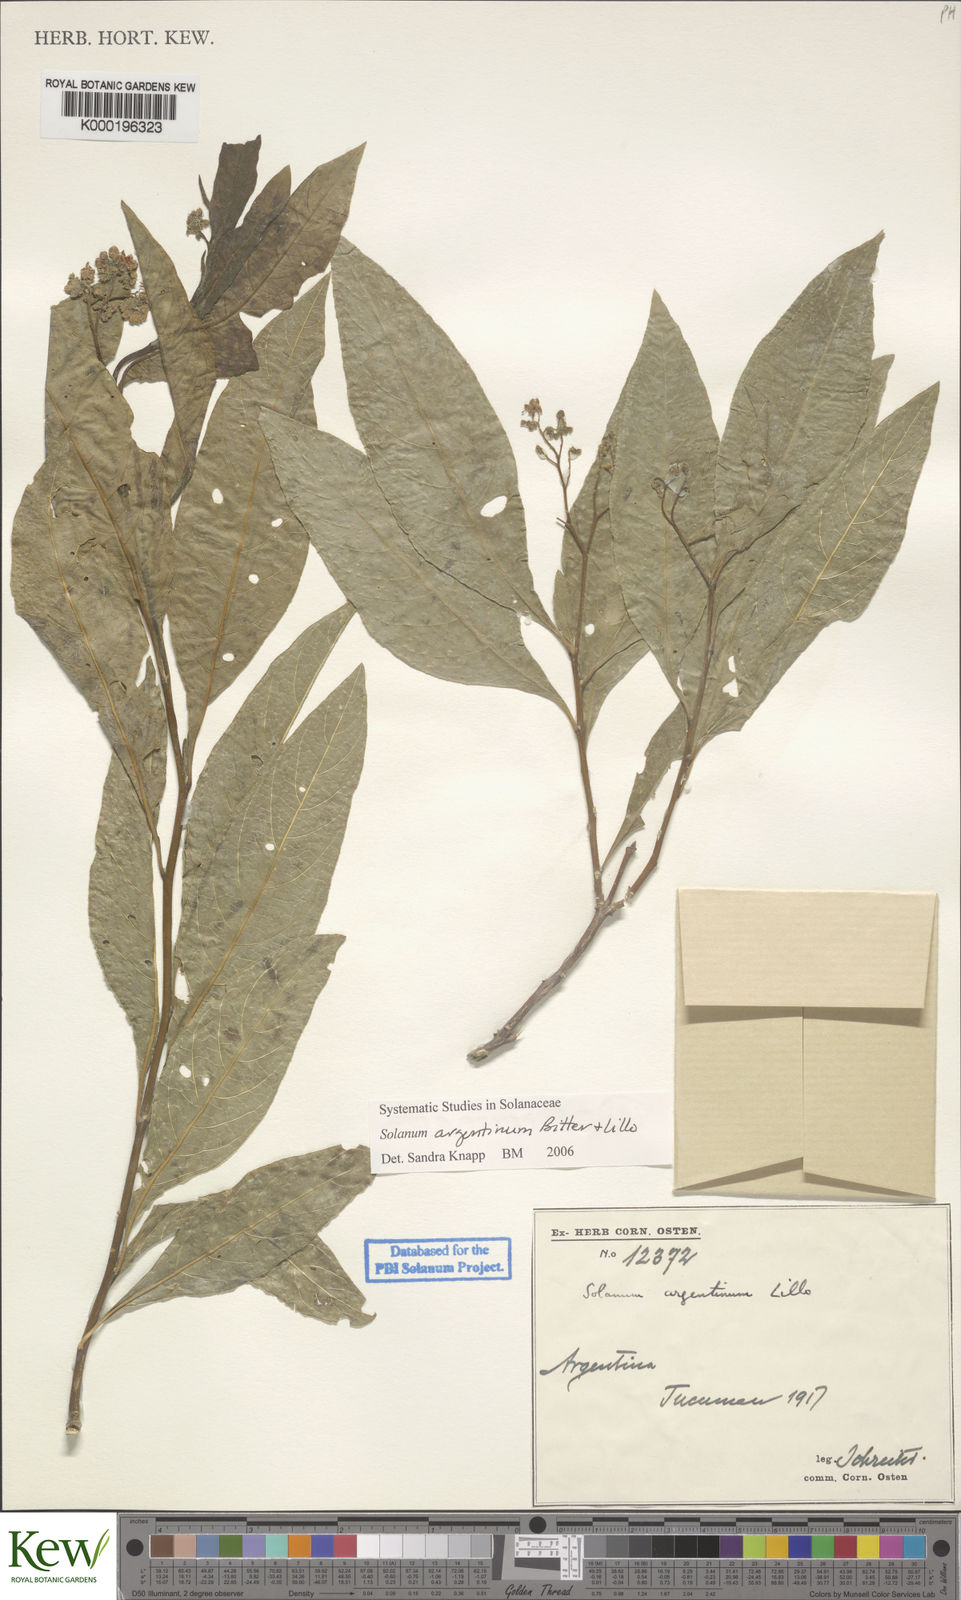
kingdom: Plantae
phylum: Tracheophyta
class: Magnoliopsida
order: Solanales
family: Solanaceae
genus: Solanum
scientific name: Solanum argentinum
